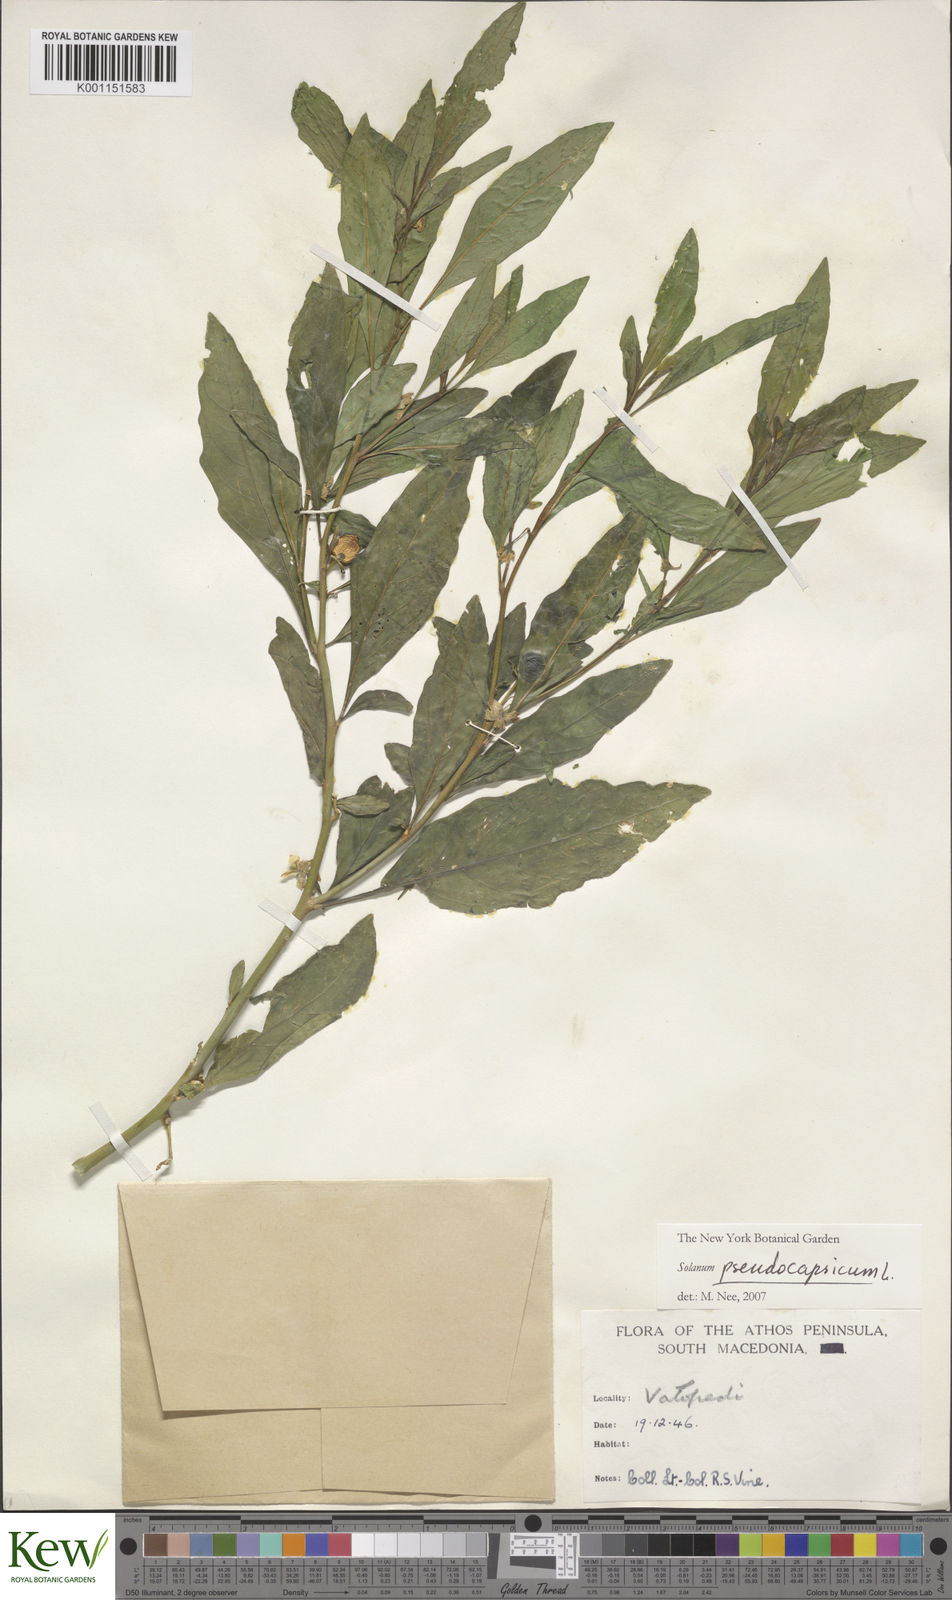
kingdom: Plantae
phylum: Tracheophyta
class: Magnoliopsida
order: Solanales
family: Solanaceae
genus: Solanum
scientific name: Solanum pseudocapsicum
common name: Jerusalem cherry
